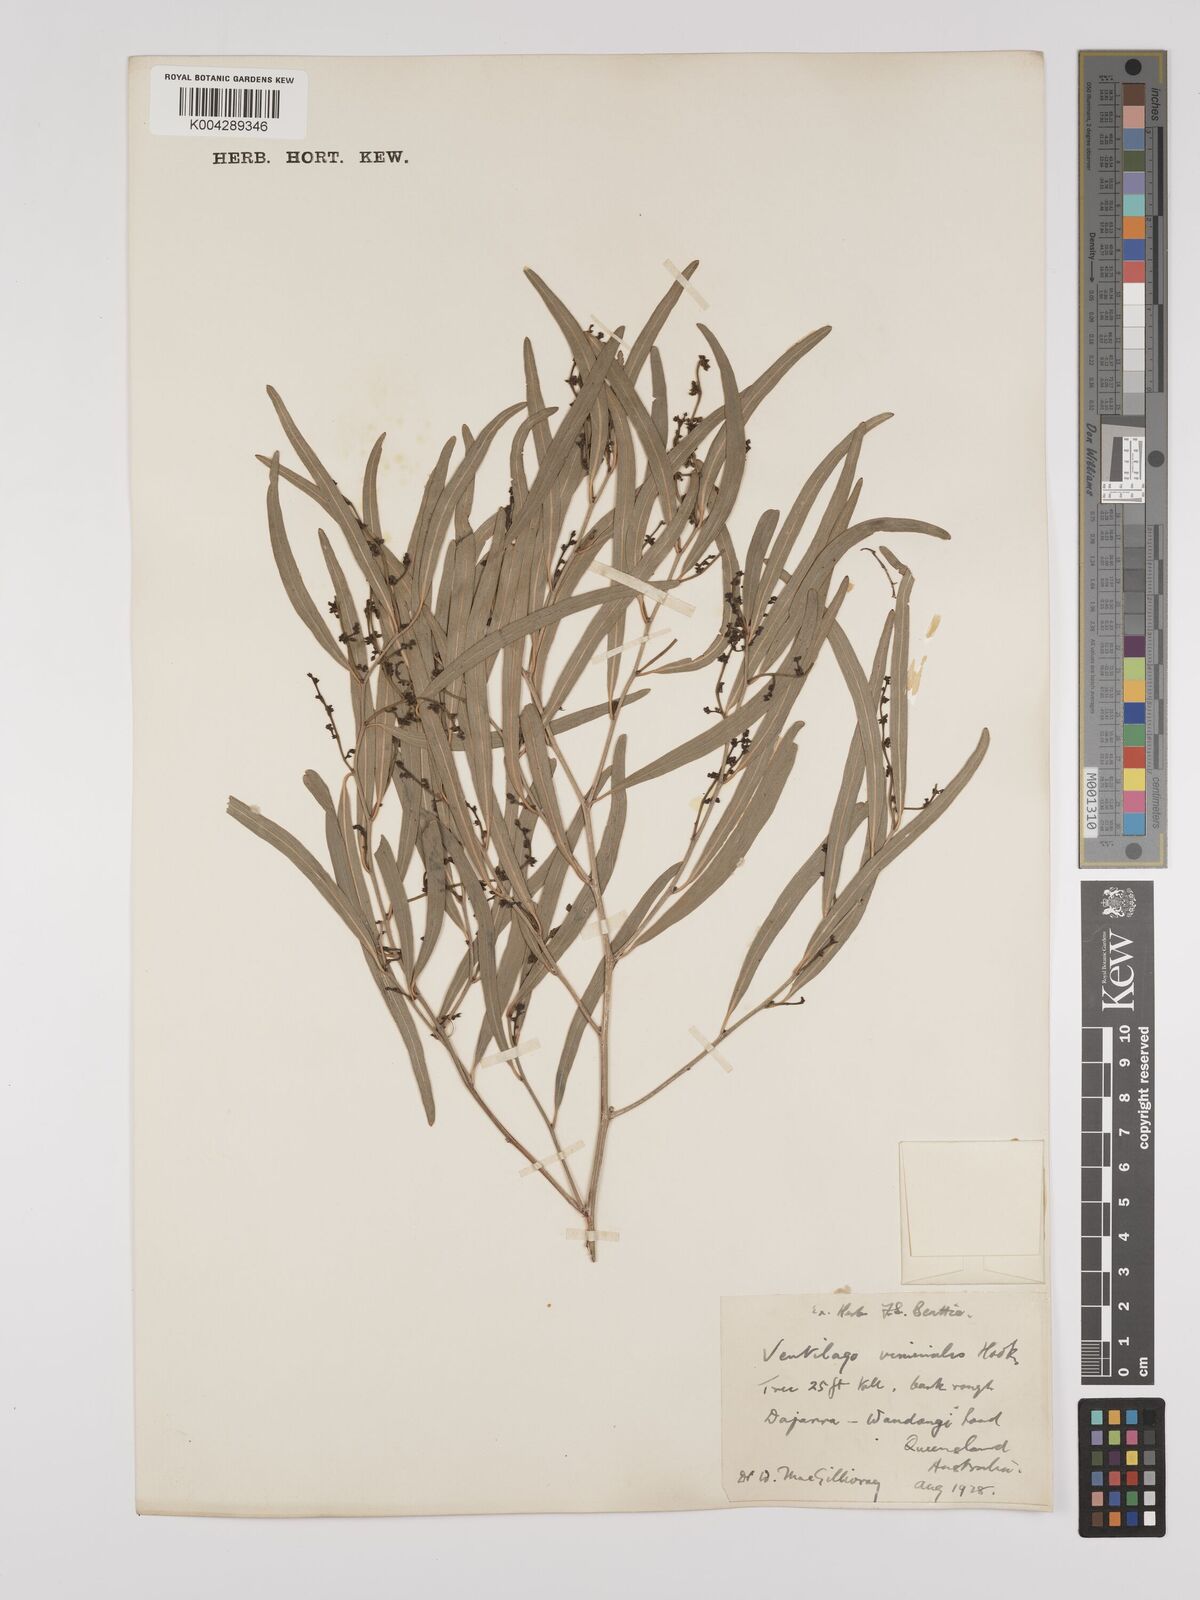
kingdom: Plantae
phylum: Tracheophyta
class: Magnoliopsida
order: Rosales
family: Rhamnaceae
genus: Ventilago
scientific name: Ventilago viminalis
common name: Medicine-bark
